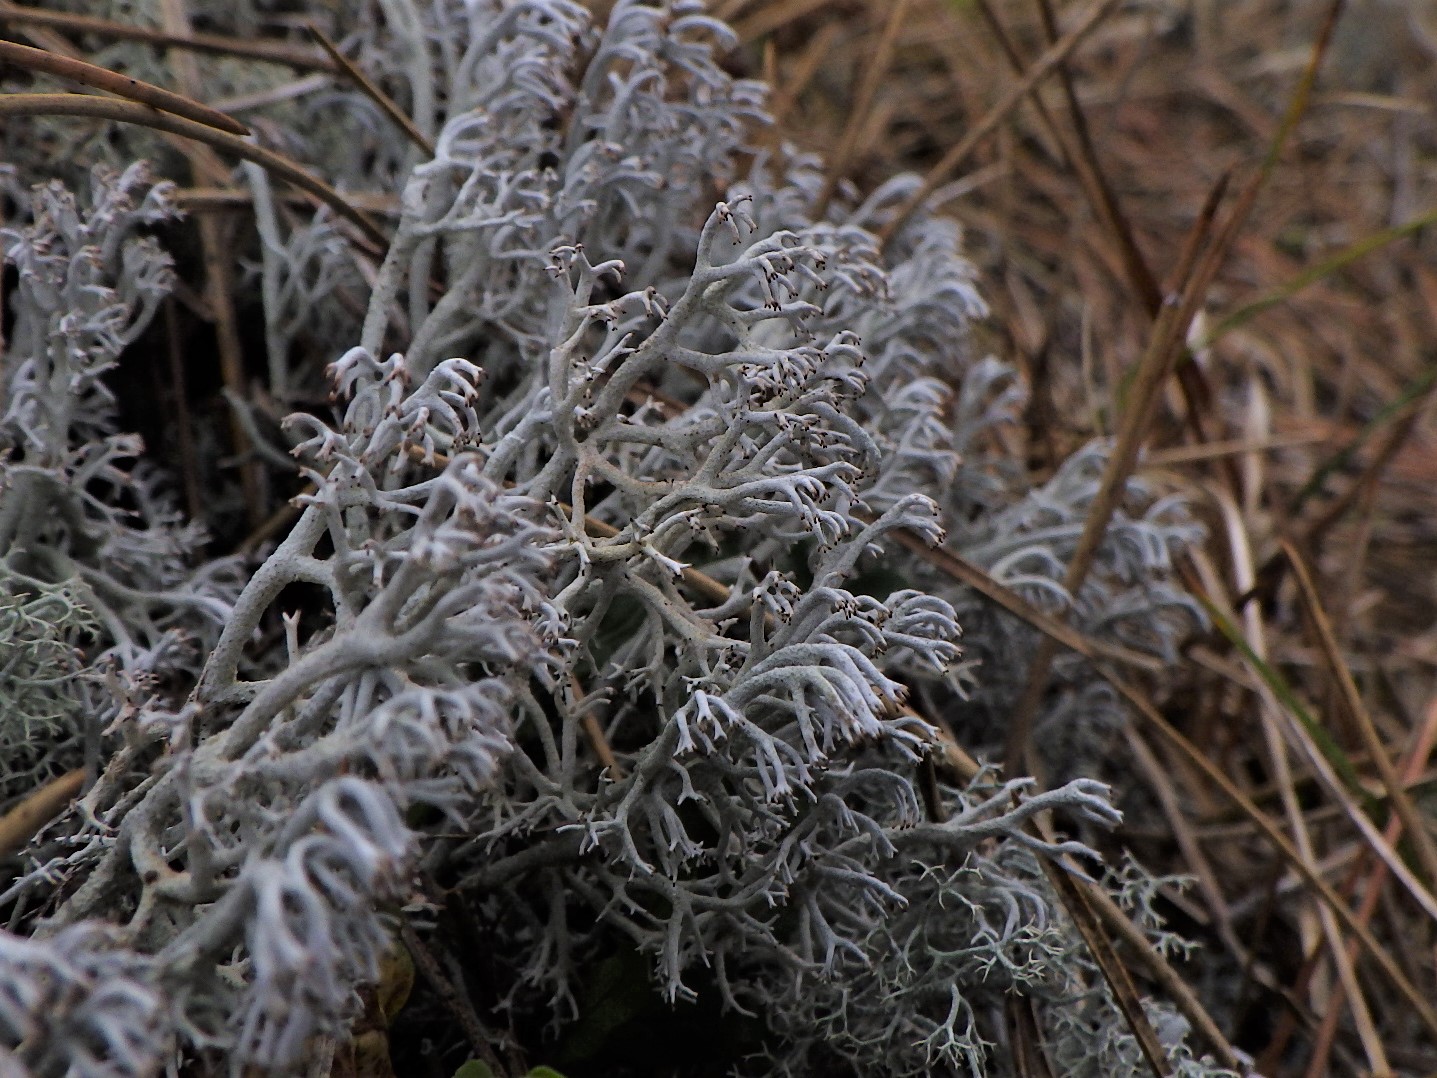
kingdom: Fungi
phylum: Ascomycota
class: Lecanoromycetes
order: Lecanorales
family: Cladoniaceae
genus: Cladonia
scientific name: Cladonia rangiferina
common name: askegrå rensdyrlav
